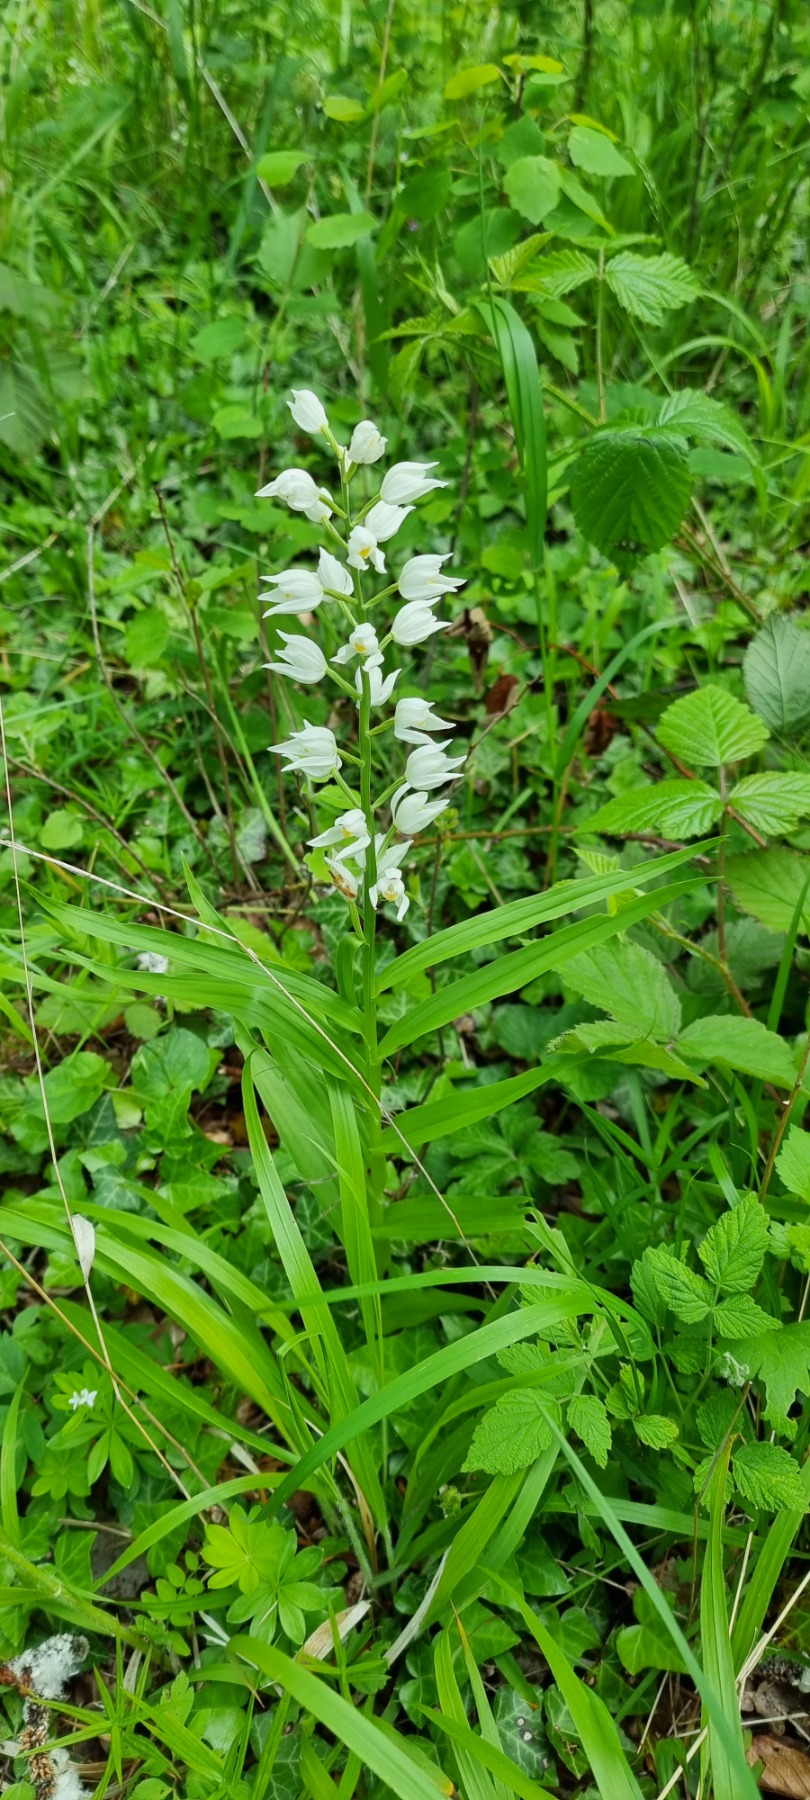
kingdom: Plantae
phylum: Tracheophyta
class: Liliopsida
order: Asparagales
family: Orchidaceae
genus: Cephalanthera
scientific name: Cephalanthera longifolia
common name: Sværd-skovlilje
